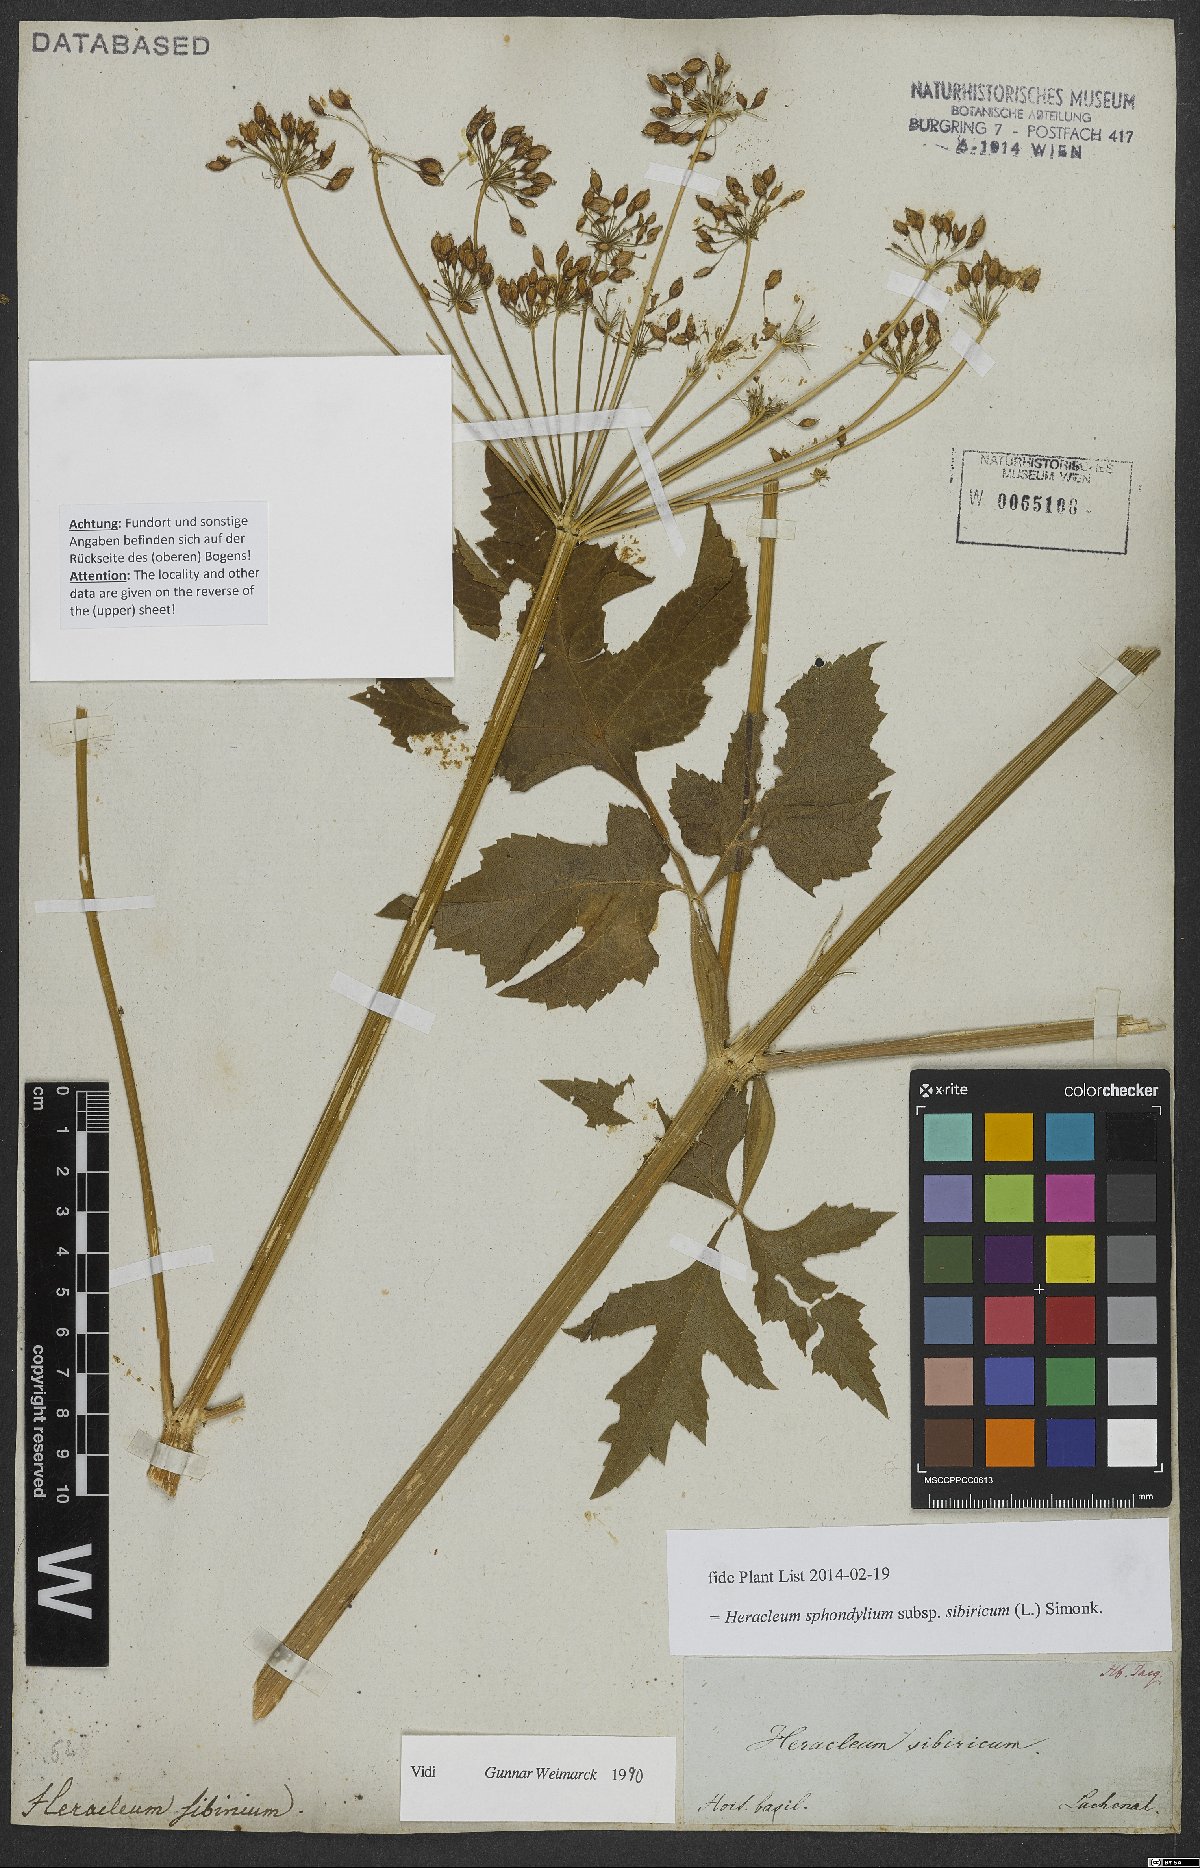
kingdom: Plantae
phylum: Tracheophyta
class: Magnoliopsida
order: Apiales
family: Apiaceae
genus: Heracleum
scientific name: Heracleum sphondylium
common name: Hogweed
